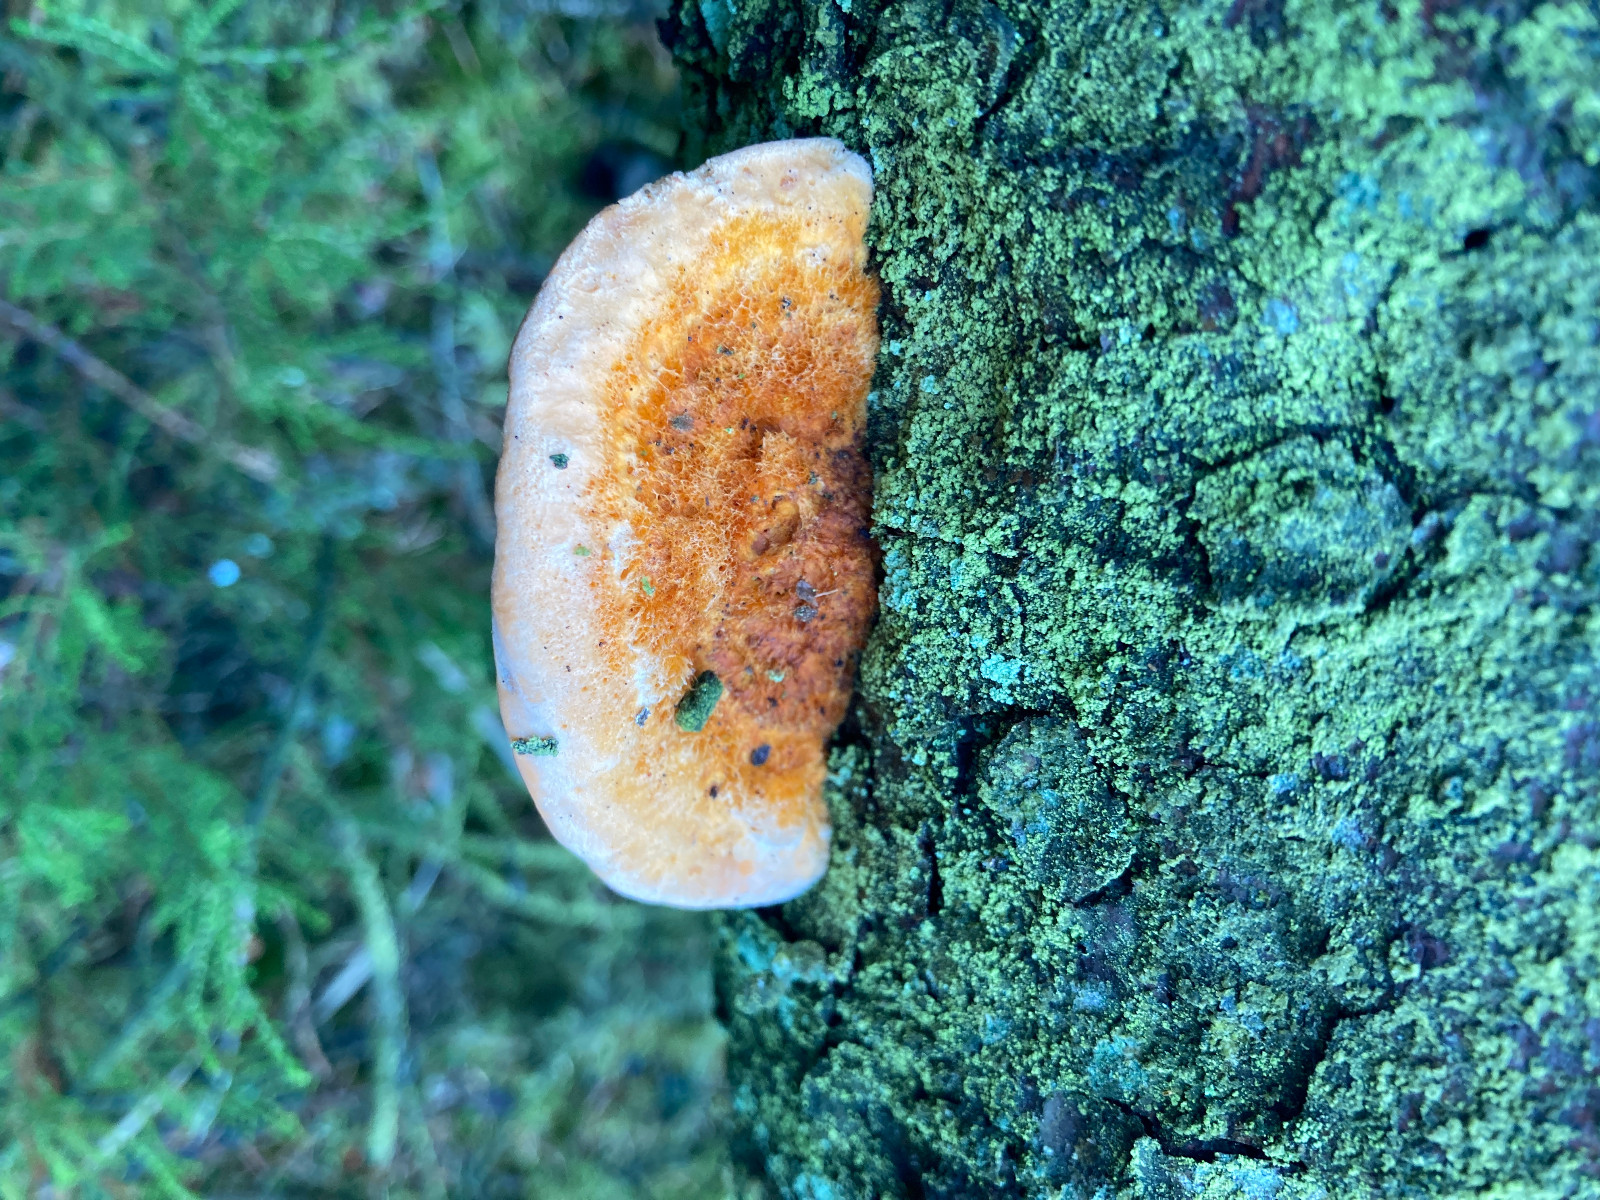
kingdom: Fungi
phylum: Basidiomycota
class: Agaricomycetes
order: Polyporales
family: Pycnoporellaceae
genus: Pycnoporellus
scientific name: Pycnoporellus fulgens
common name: flammeporesvamp
